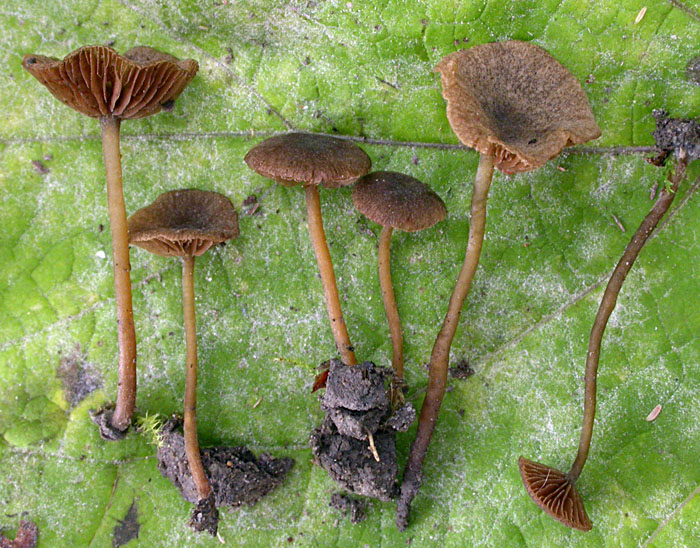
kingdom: Fungi
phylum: Basidiomycota
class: Agaricomycetes
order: Agaricales
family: Crepidotaceae
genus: Simocybe
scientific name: Simocybe centunculus
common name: enlig skyggehat
